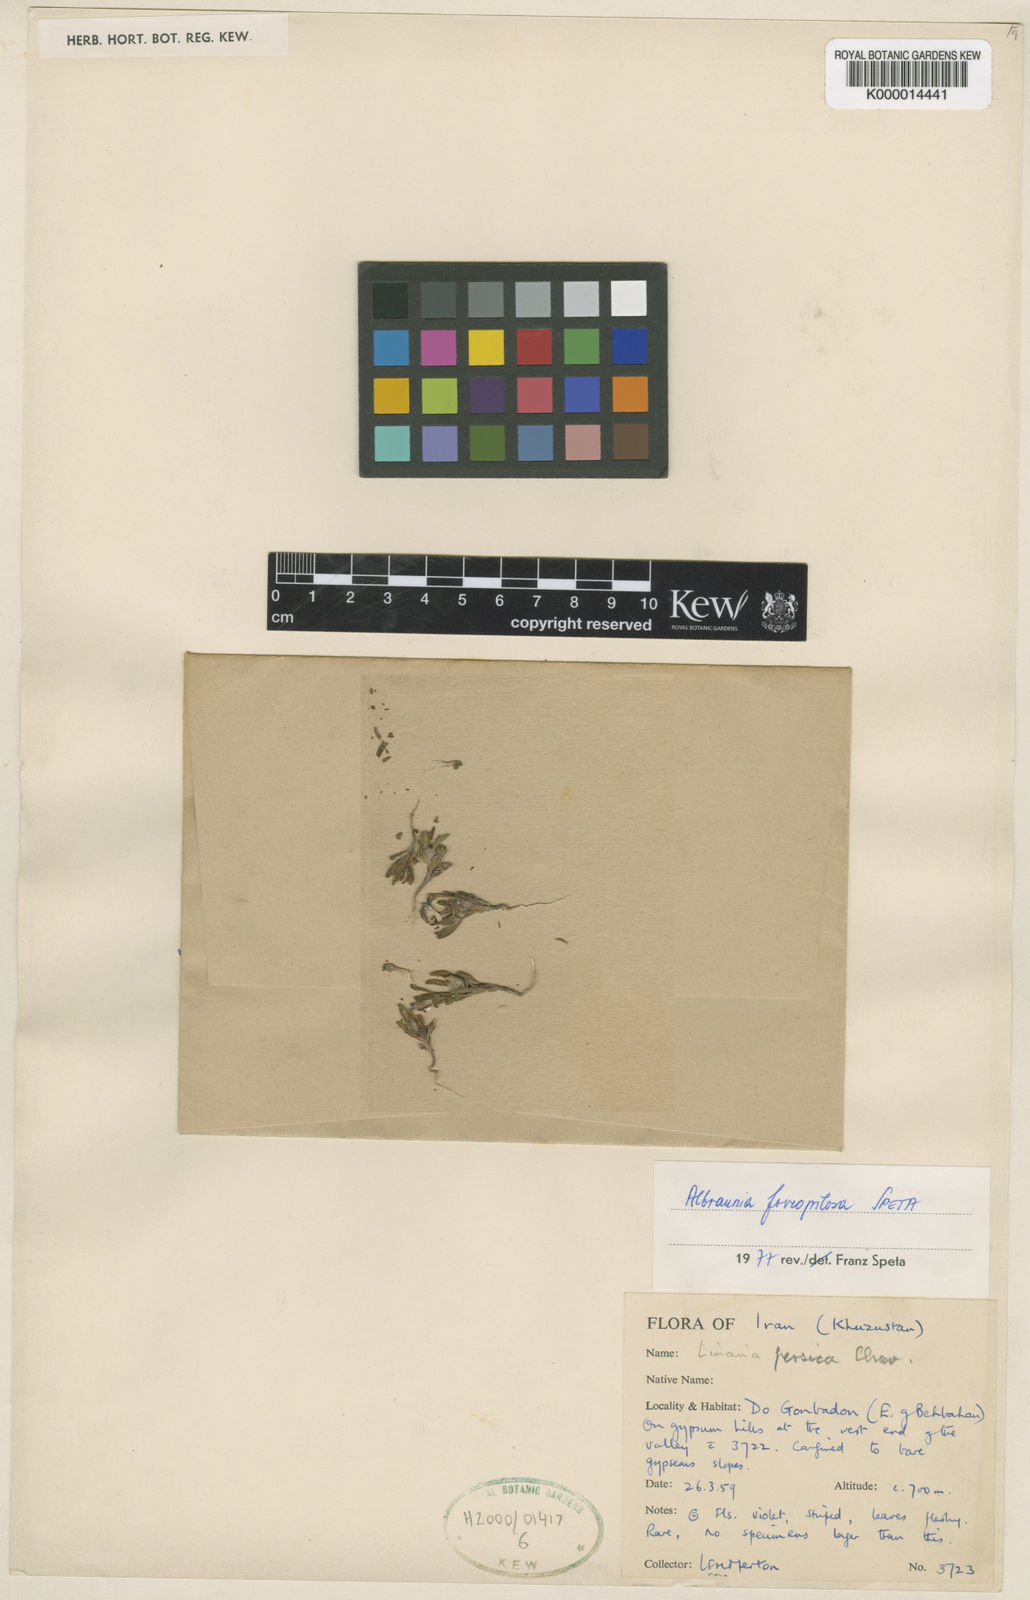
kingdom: Plantae
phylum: Tracheophyta
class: Magnoliopsida
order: Lamiales
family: Plantaginaceae
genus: Albraunia
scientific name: Albraunia foveopilosa
